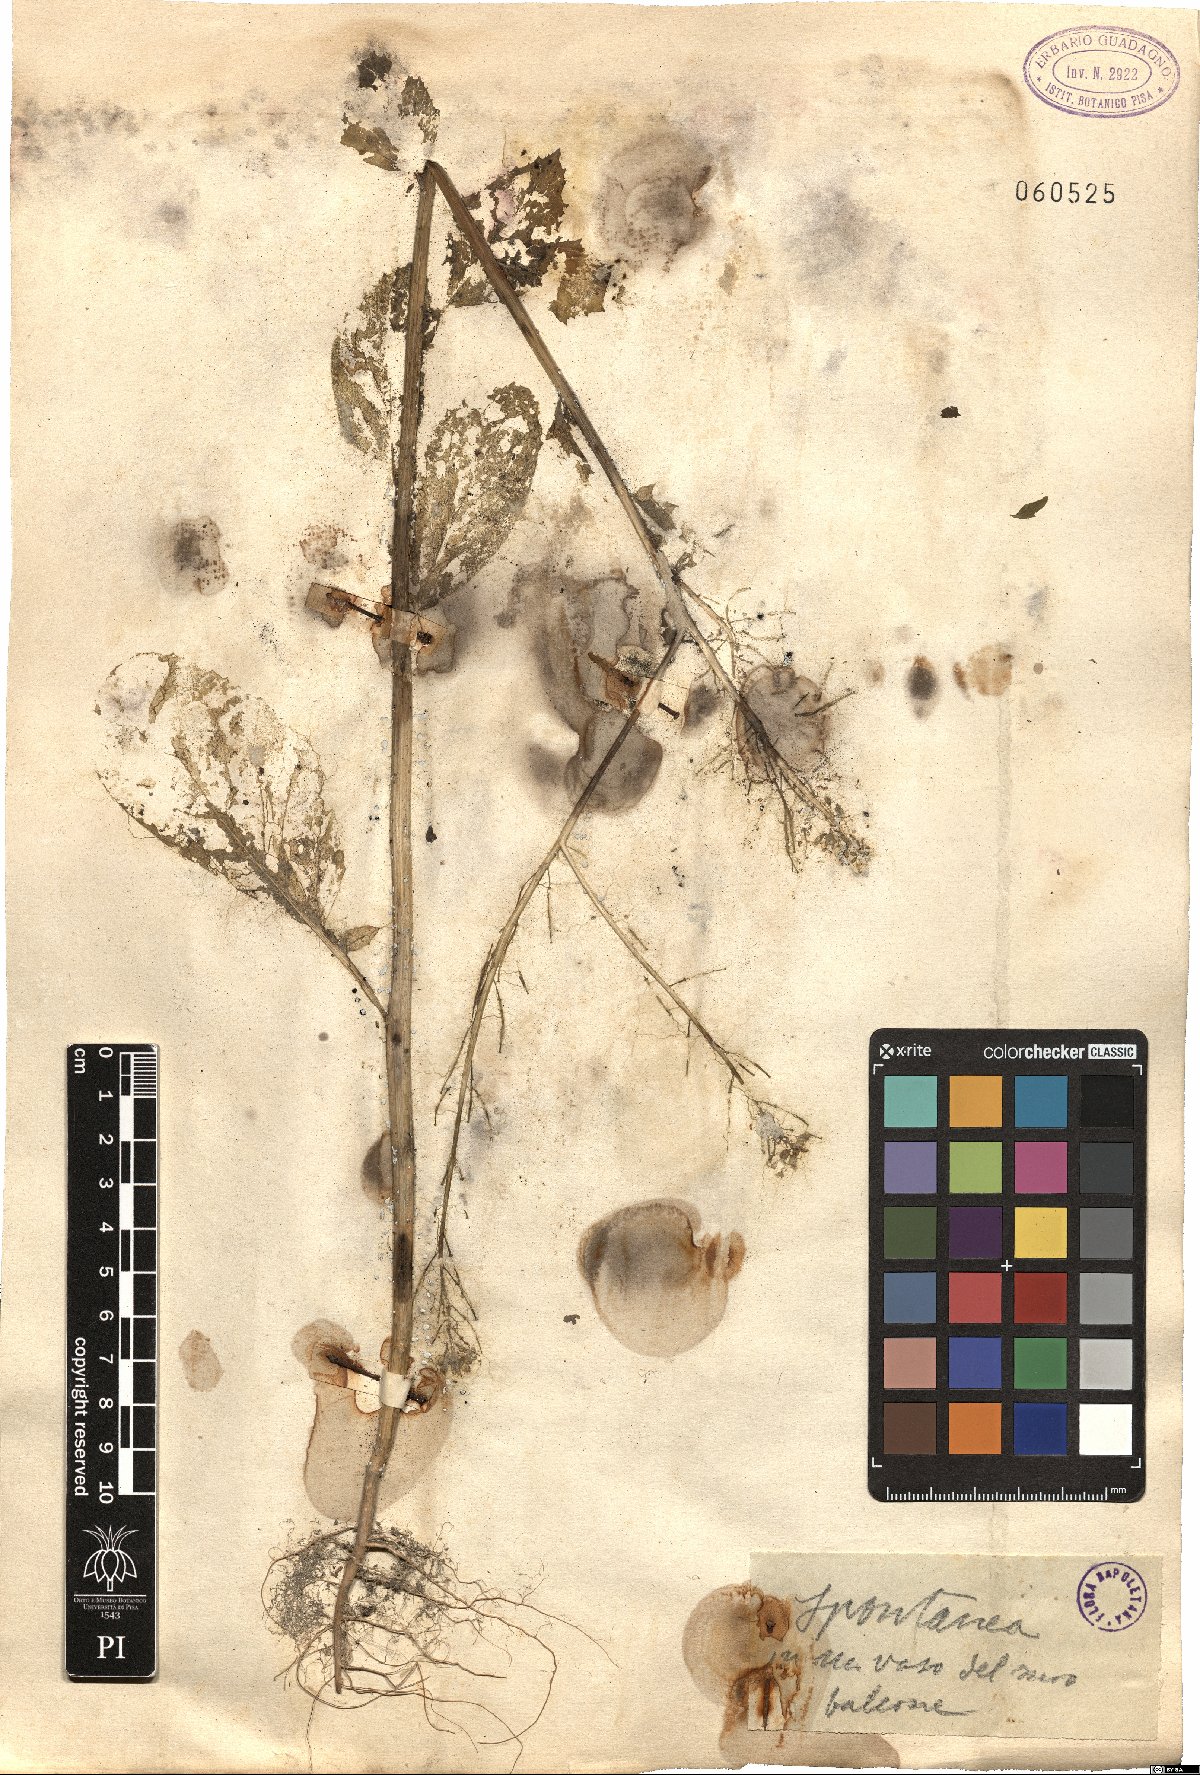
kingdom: Plantae
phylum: Tracheophyta
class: Magnoliopsida
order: Brassicales
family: Brassicaceae
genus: Sinapis
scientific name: Sinapis
